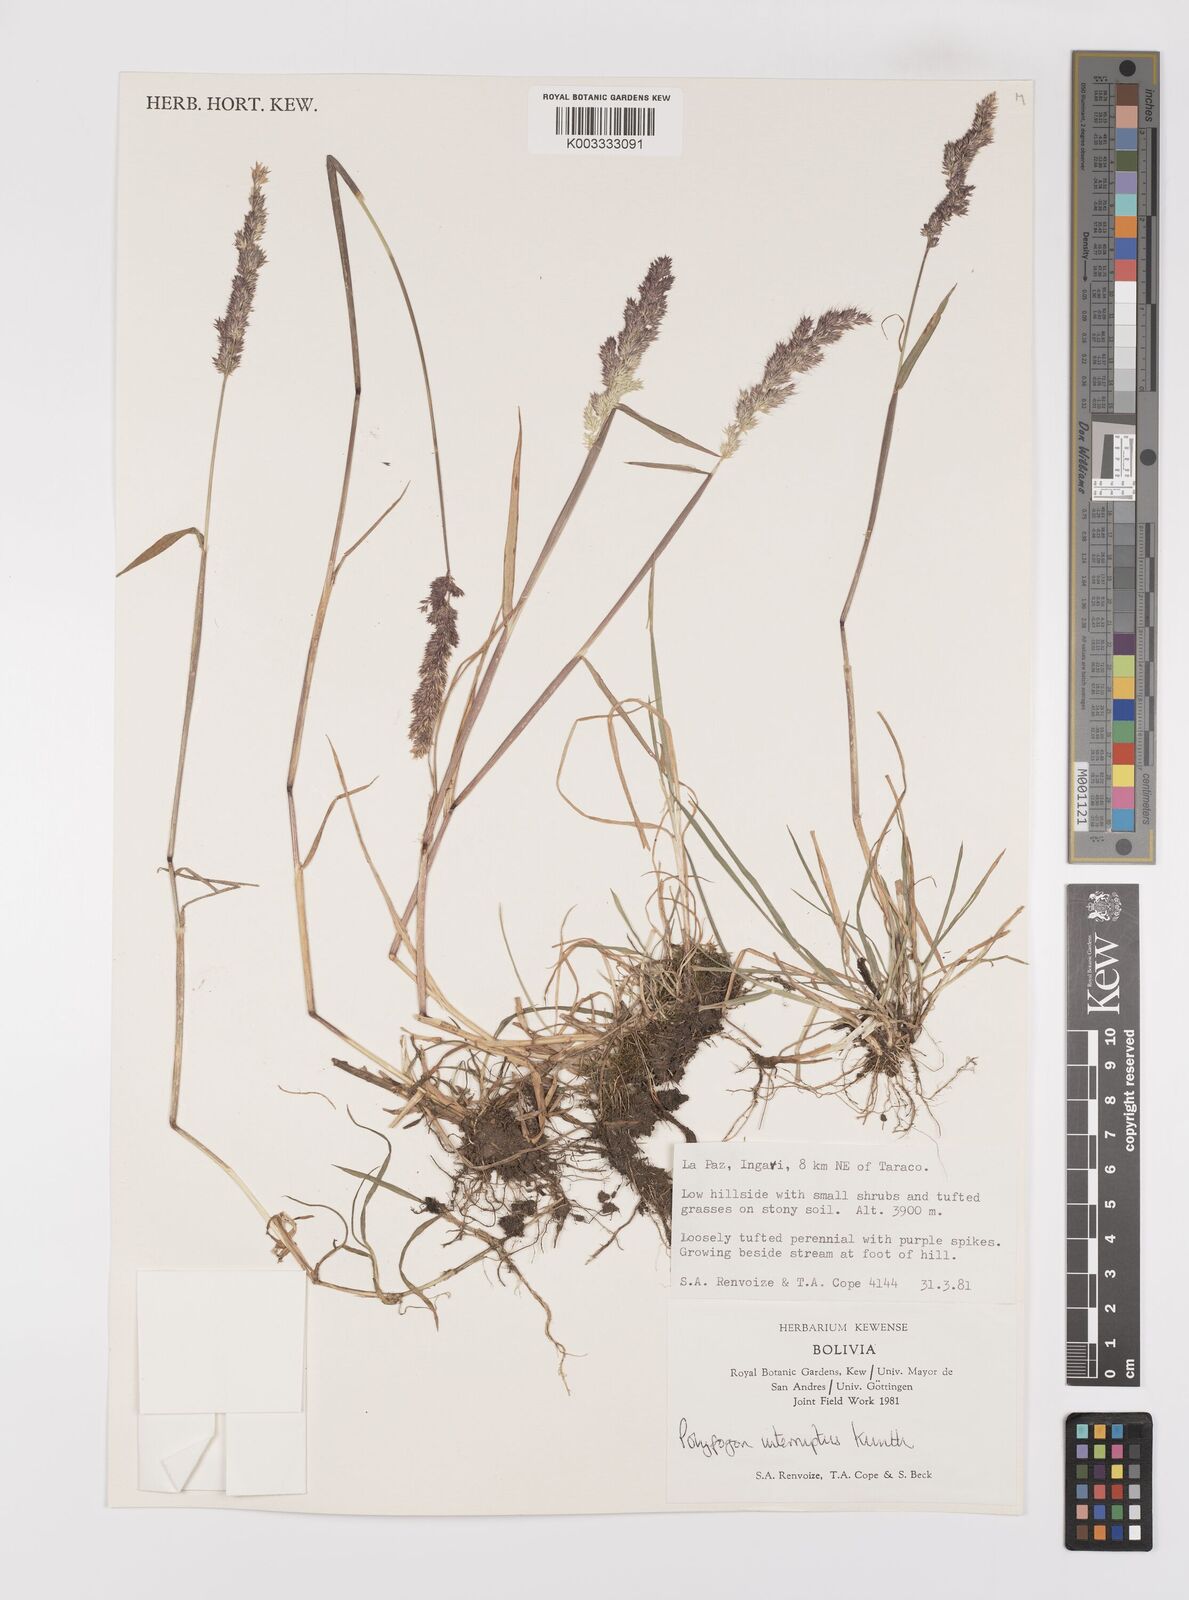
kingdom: Plantae
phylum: Tracheophyta
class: Liliopsida
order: Poales
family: Poaceae
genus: Polypogon
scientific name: Polypogon interruptus
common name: Ditch polypogon
